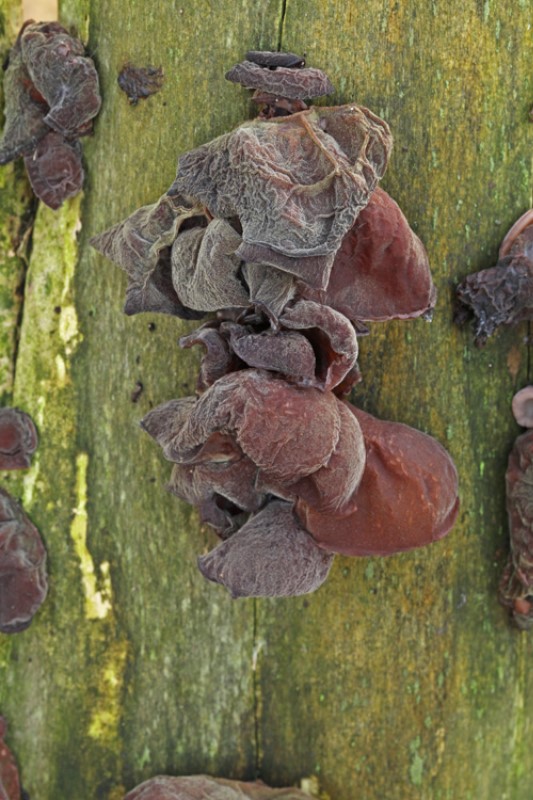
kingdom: Fungi
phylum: Basidiomycota
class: Agaricomycetes
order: Auriculariales
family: Auriculariaceae
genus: Auricularia
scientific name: Auricularia auricula-judae
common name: almindelig judasøre
